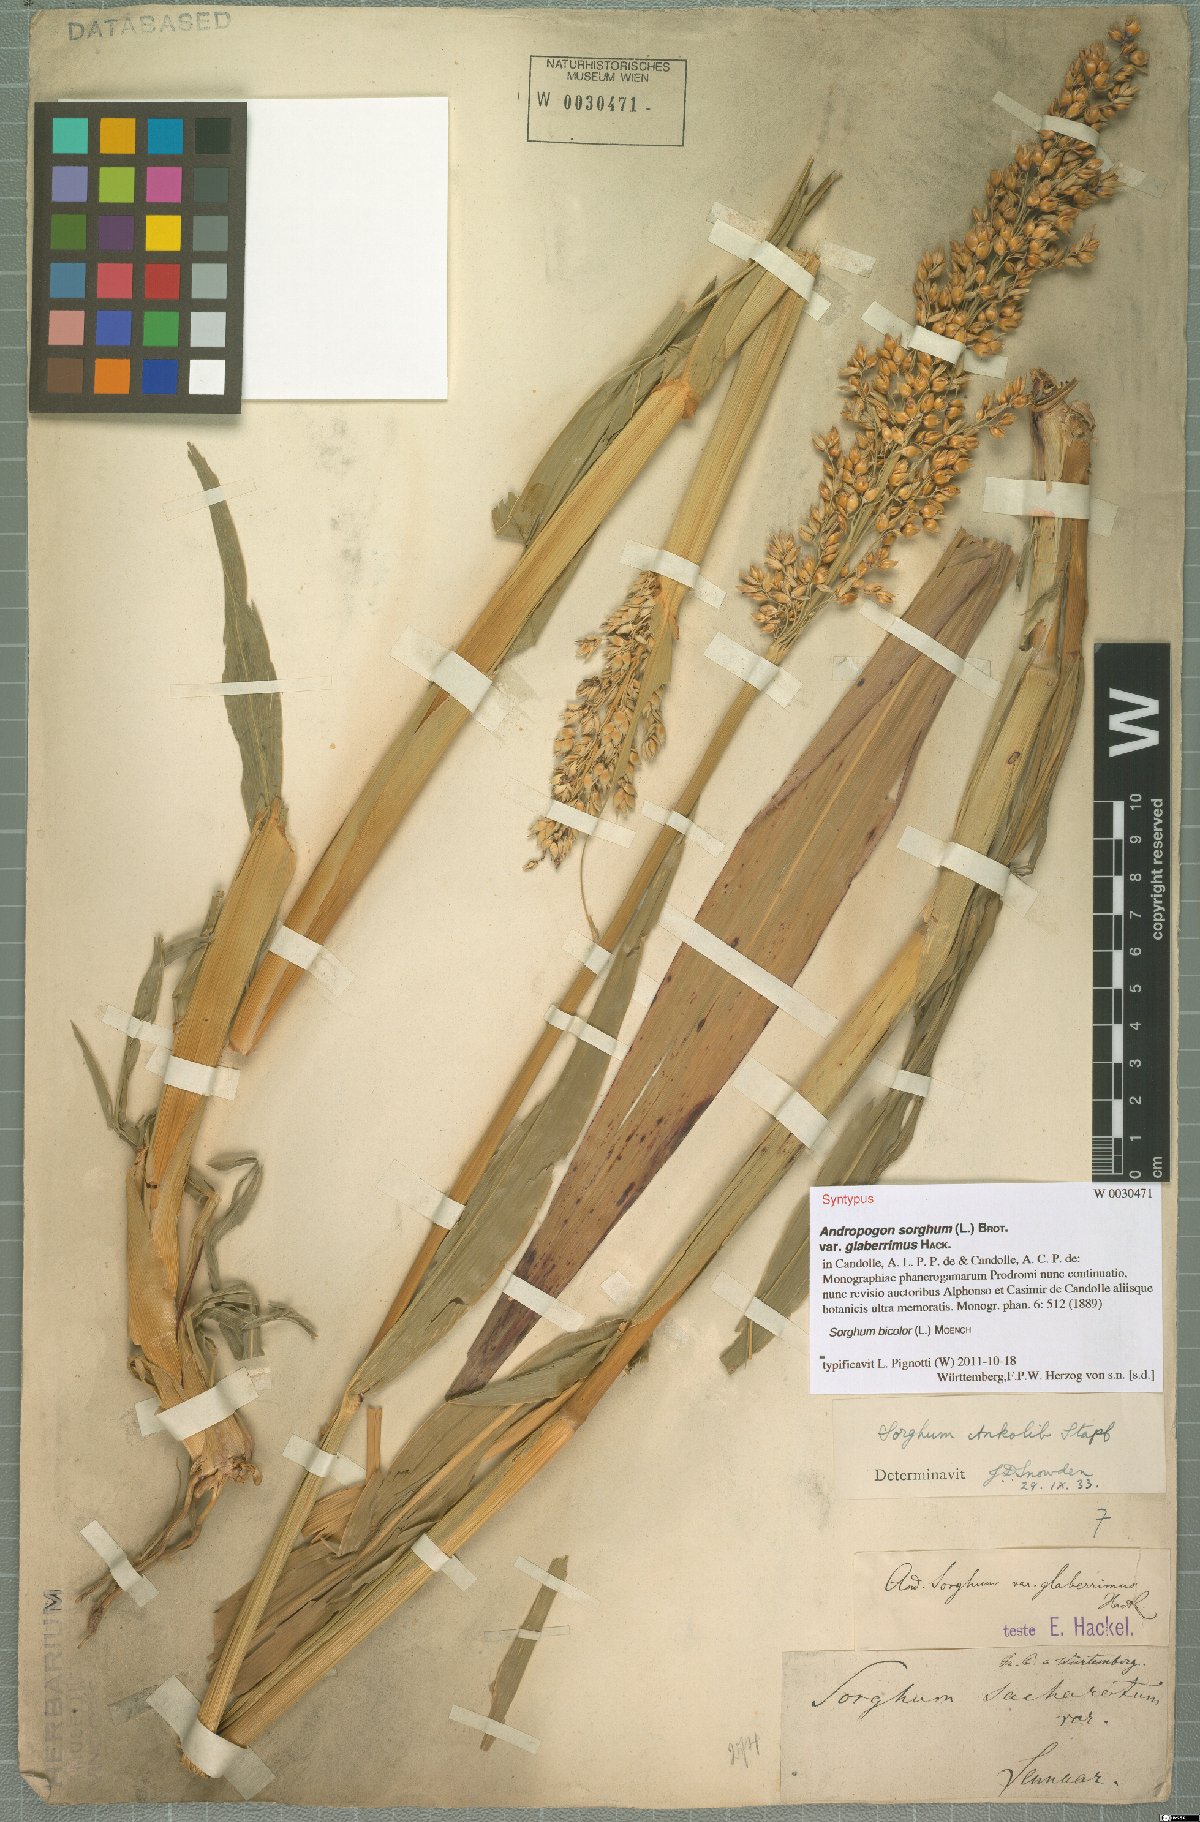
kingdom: Plantae
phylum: Tracheophyta
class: Liliopsida
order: Poales
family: Poaceae
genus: Sorghum
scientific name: Sorghum bicolor
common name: Sorghum
